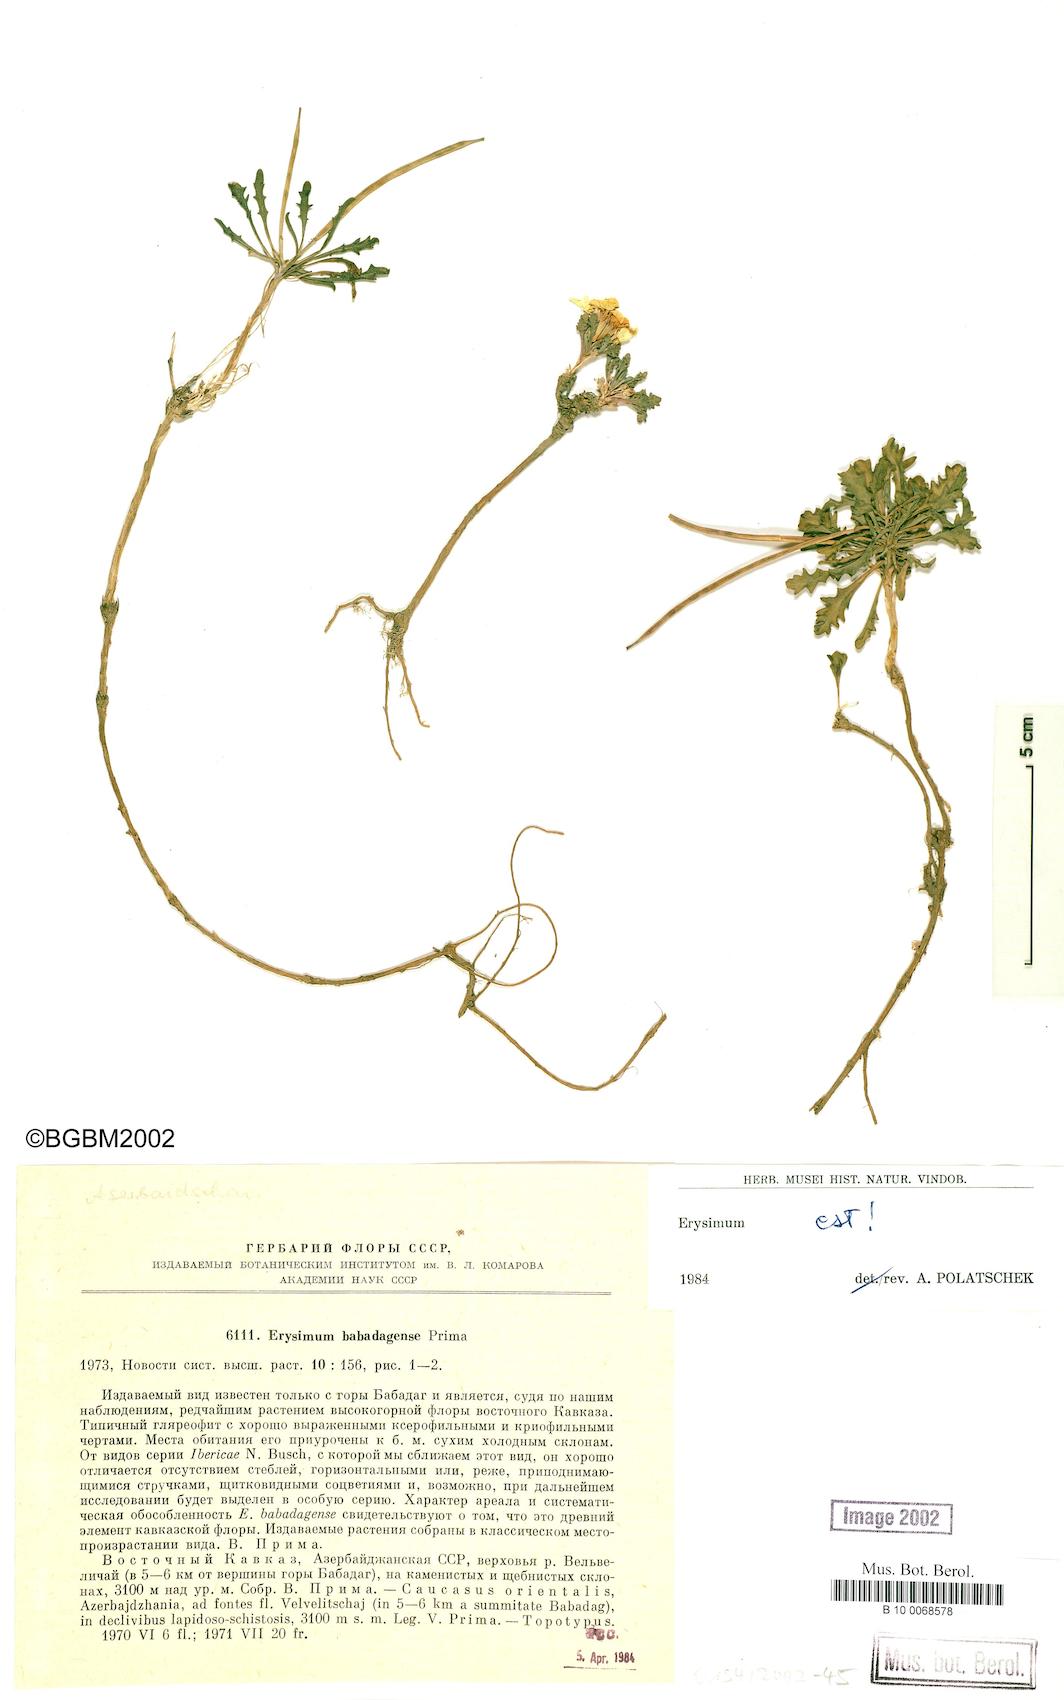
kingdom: Plantae
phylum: Tracheophyta
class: Magnoliopsida
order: Brassicales
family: Brassicaceae
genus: Erysimum
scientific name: Erysimum babadagense
